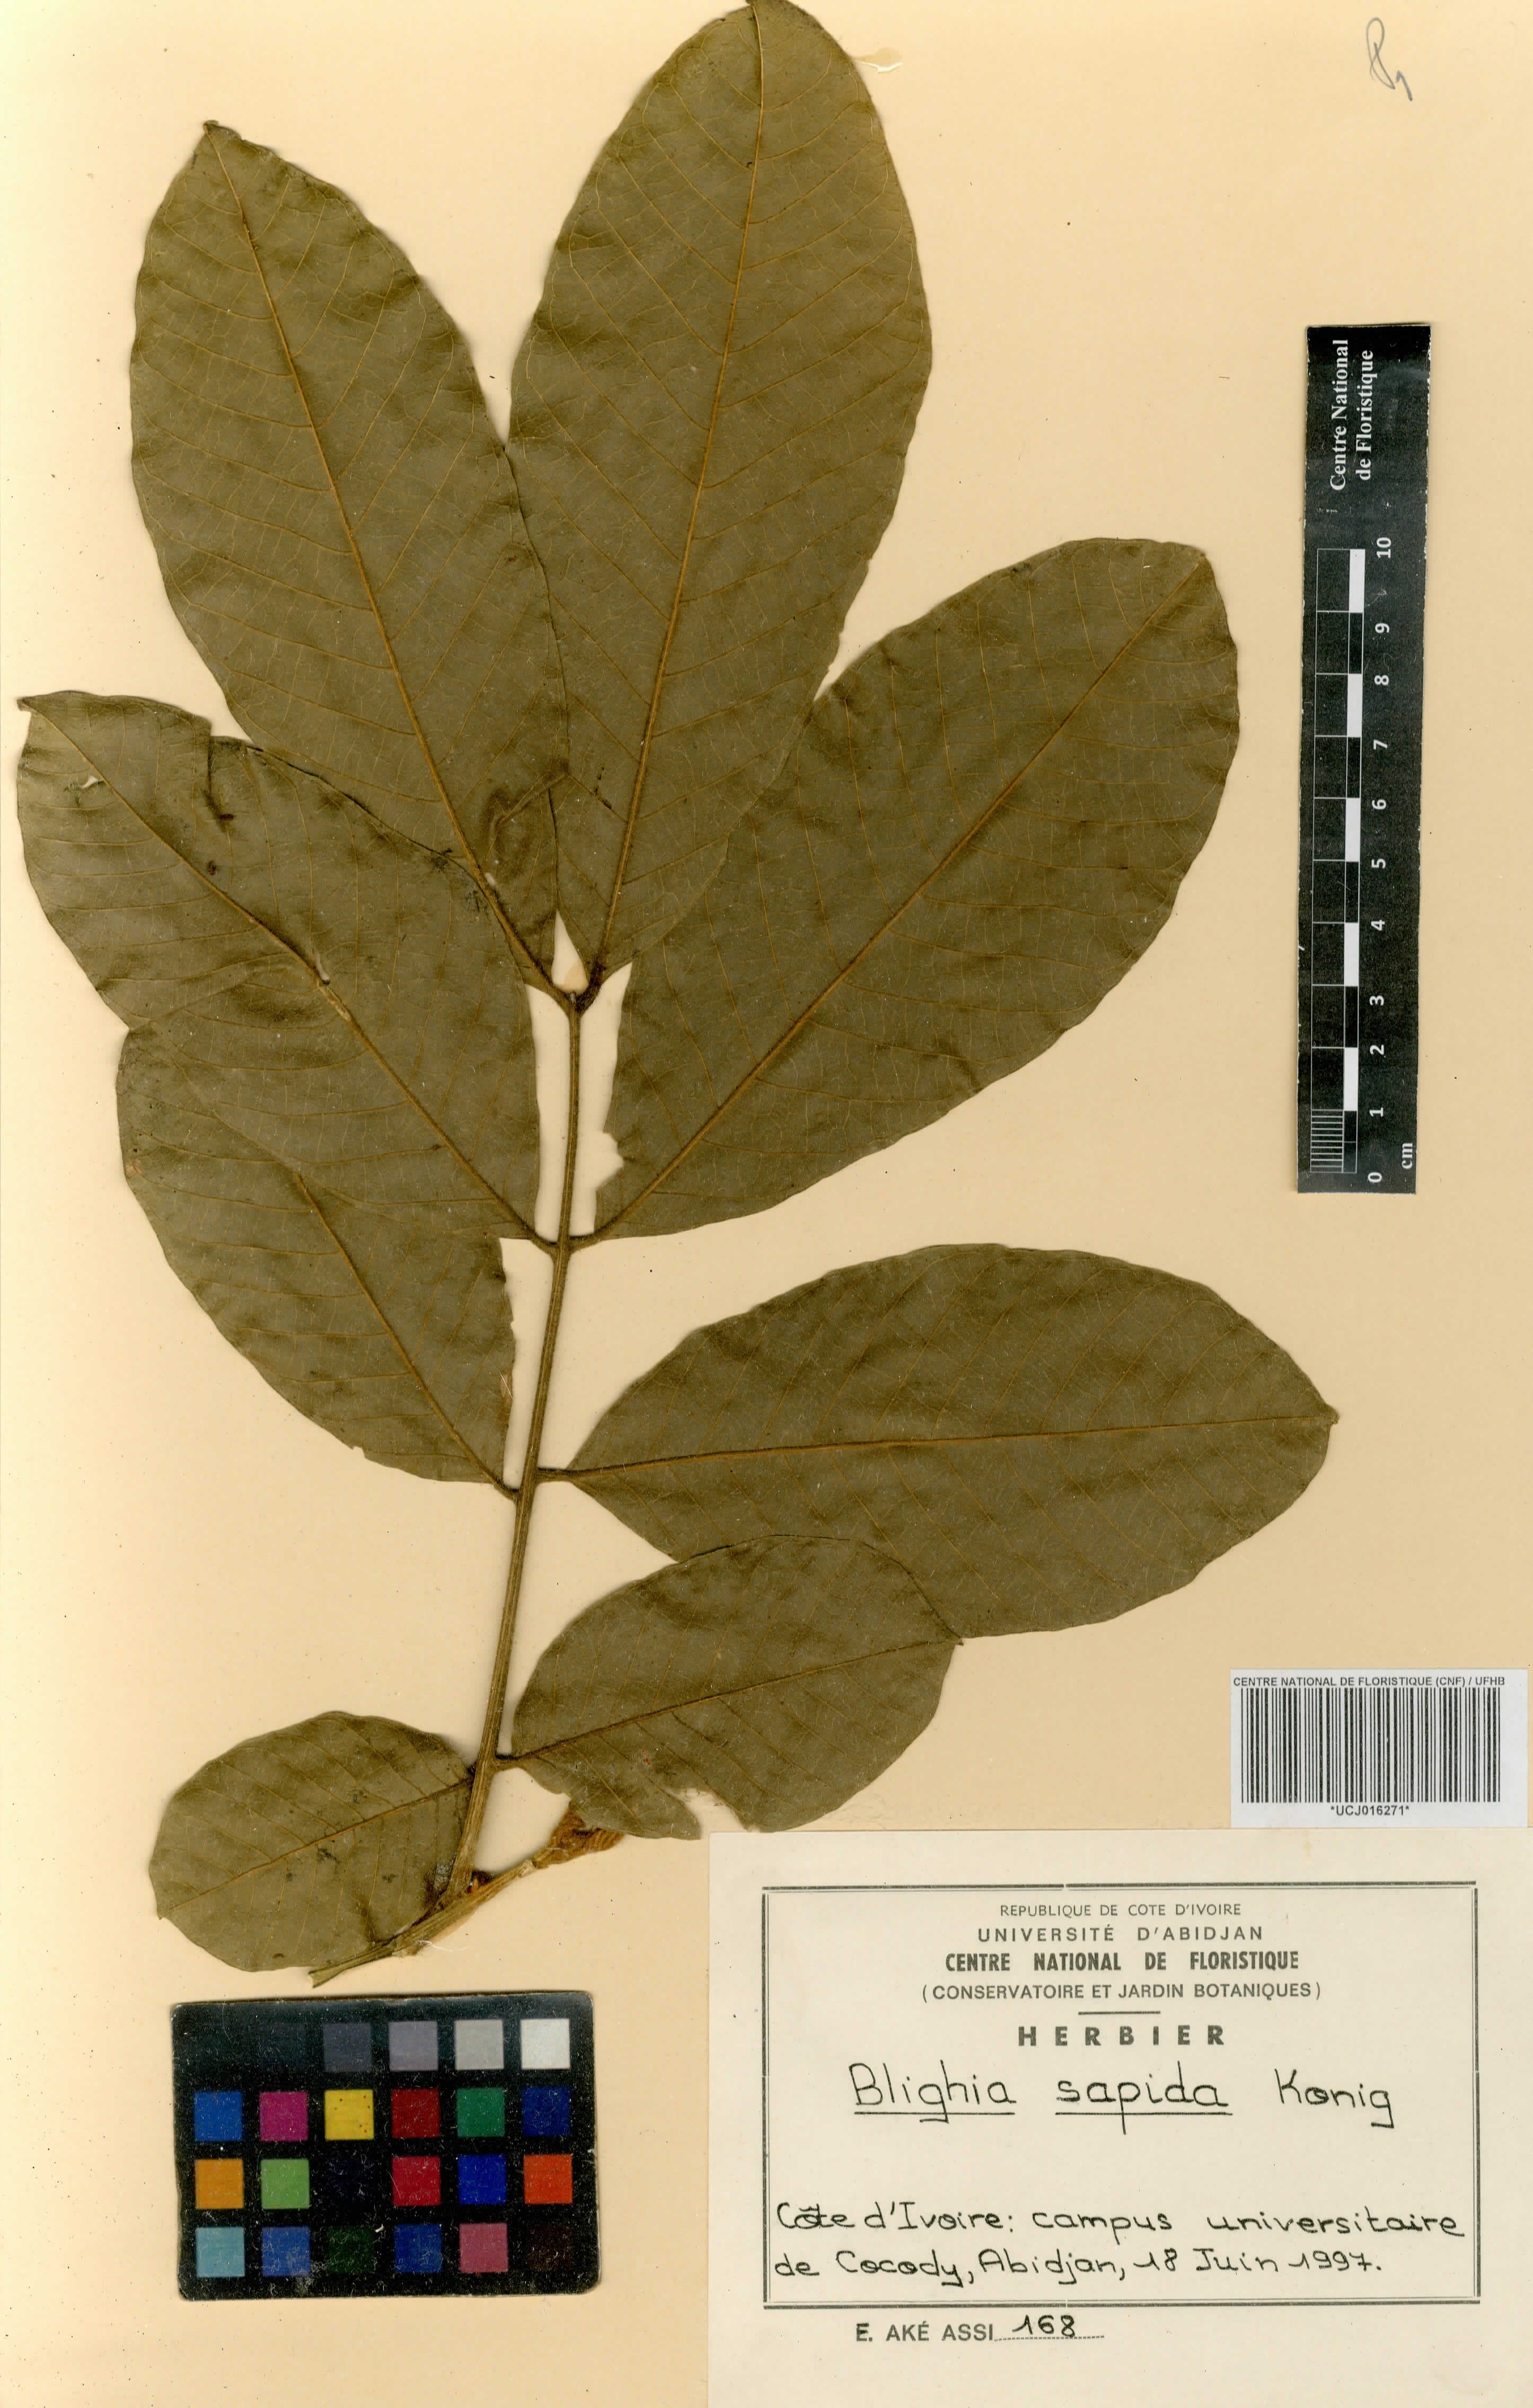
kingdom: Plantae
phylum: Tracheophyta
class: Magnoliopsida
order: Sapindales
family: Sapindaceae
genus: Blighia
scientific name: Blighia sapida
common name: Akee
